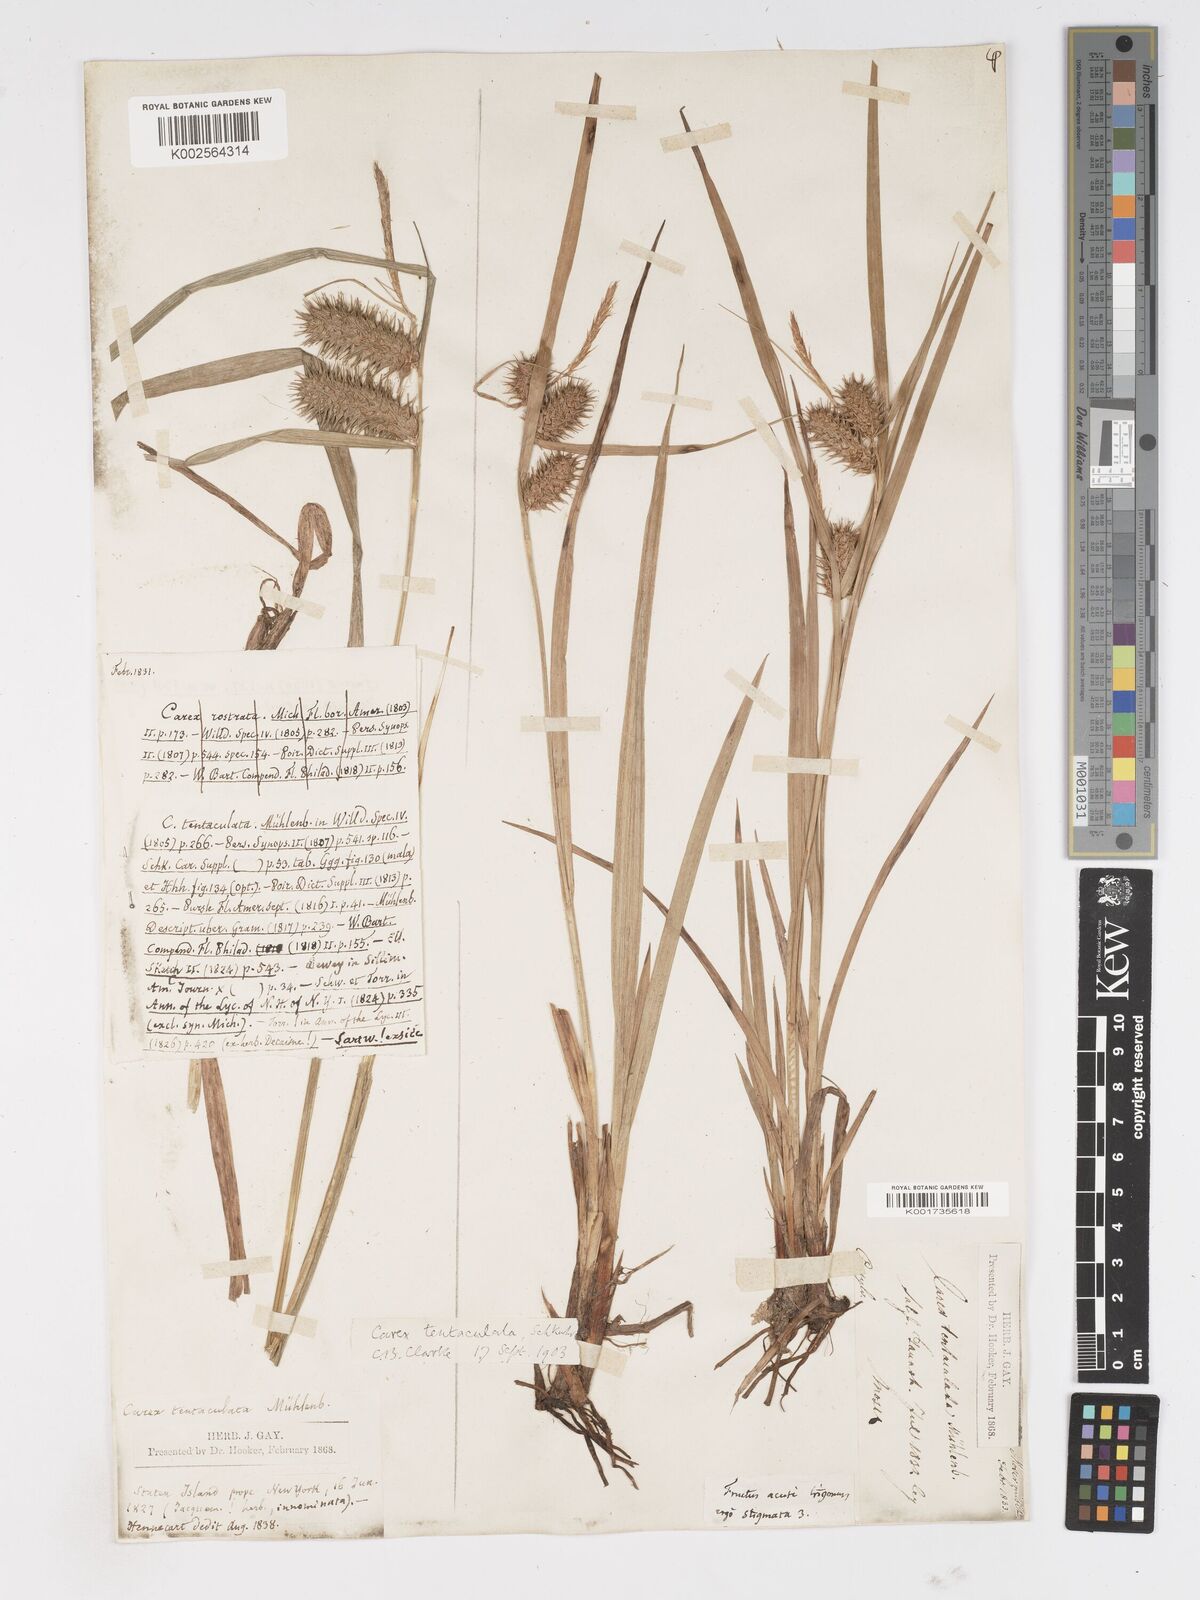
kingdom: Plantae
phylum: Tracheophyta
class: Liliopsida
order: Poales
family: Cyperaceae
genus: Carex
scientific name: Carex lurida
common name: Sallow sedge
